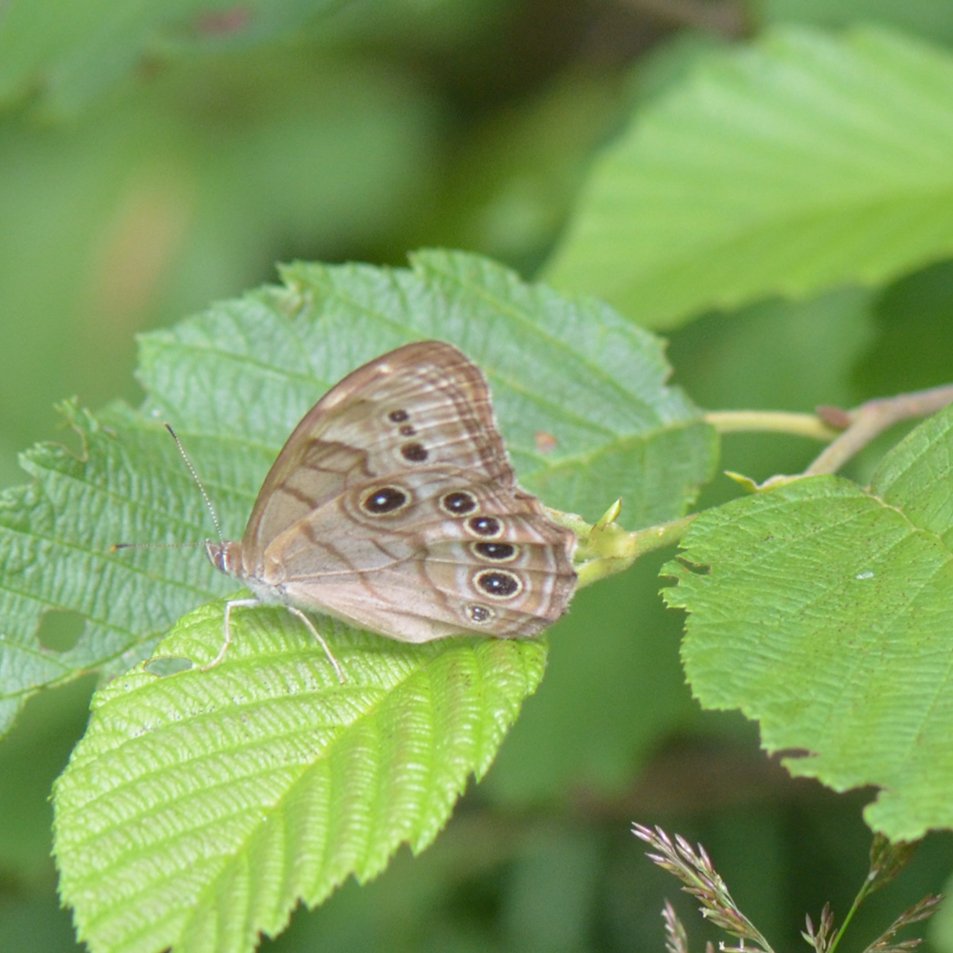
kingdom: Animalia
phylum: Arthropoda
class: Insecta
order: Lepidoptera
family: Nymphalidae
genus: Lethe
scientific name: Lethe anthedon
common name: Northern Pearly-Eye
